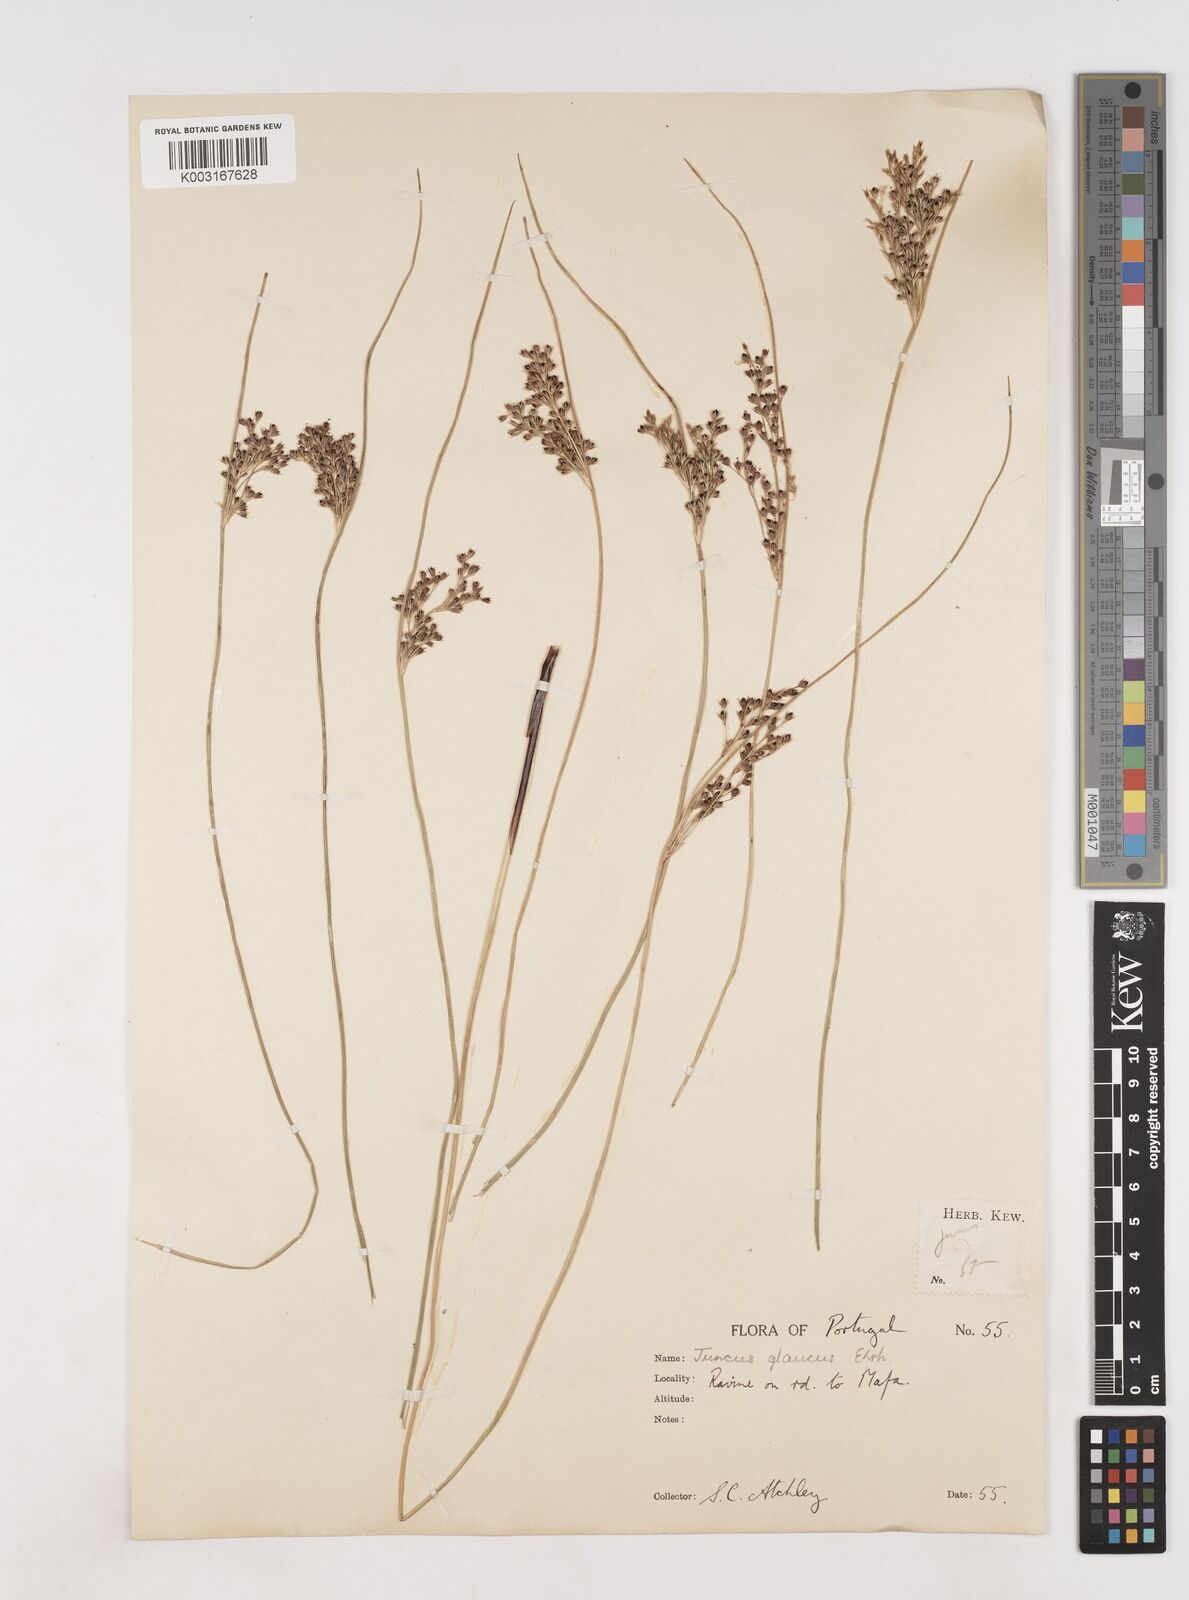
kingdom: Plantae
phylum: Tracheophyta
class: Liliopsida
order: Poales
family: Juncaceae
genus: Juncus
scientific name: Juncus inflexus
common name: Hard rush
